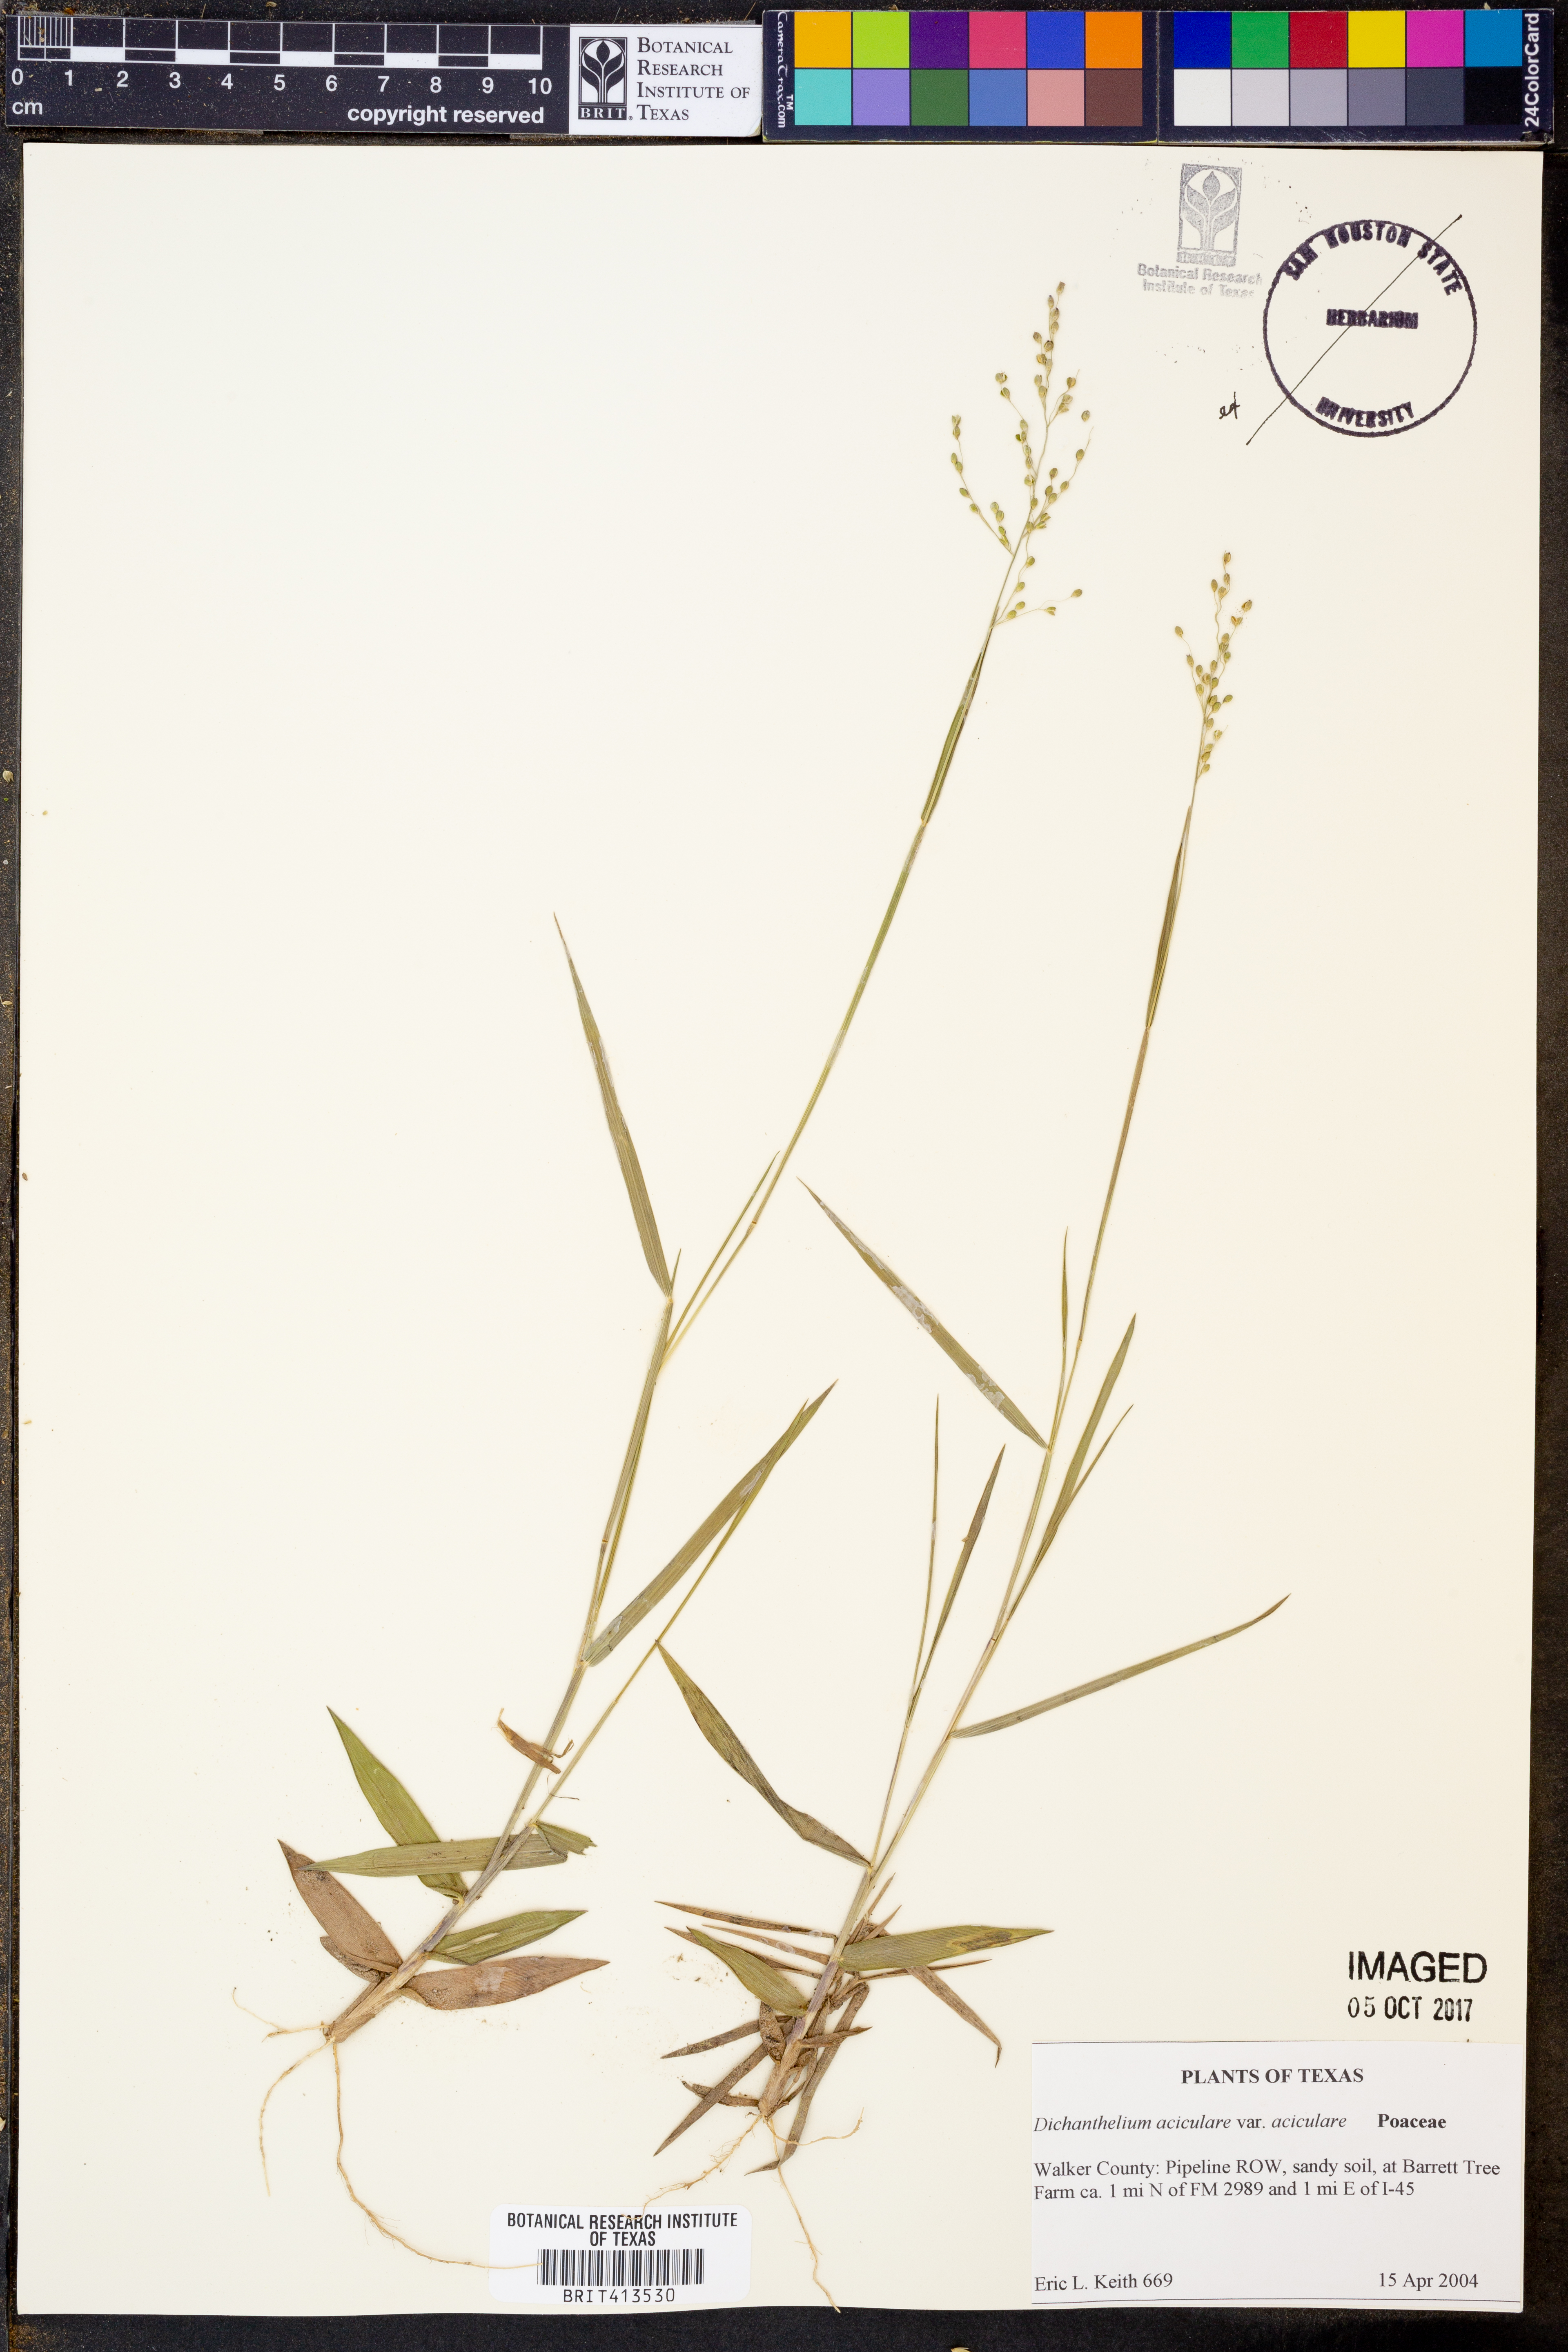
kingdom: Plantae
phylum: Tracheophyta
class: Liliopsida
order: Poales
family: Poaceae
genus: Dichanthelium
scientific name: Dichanthelium aciculare
